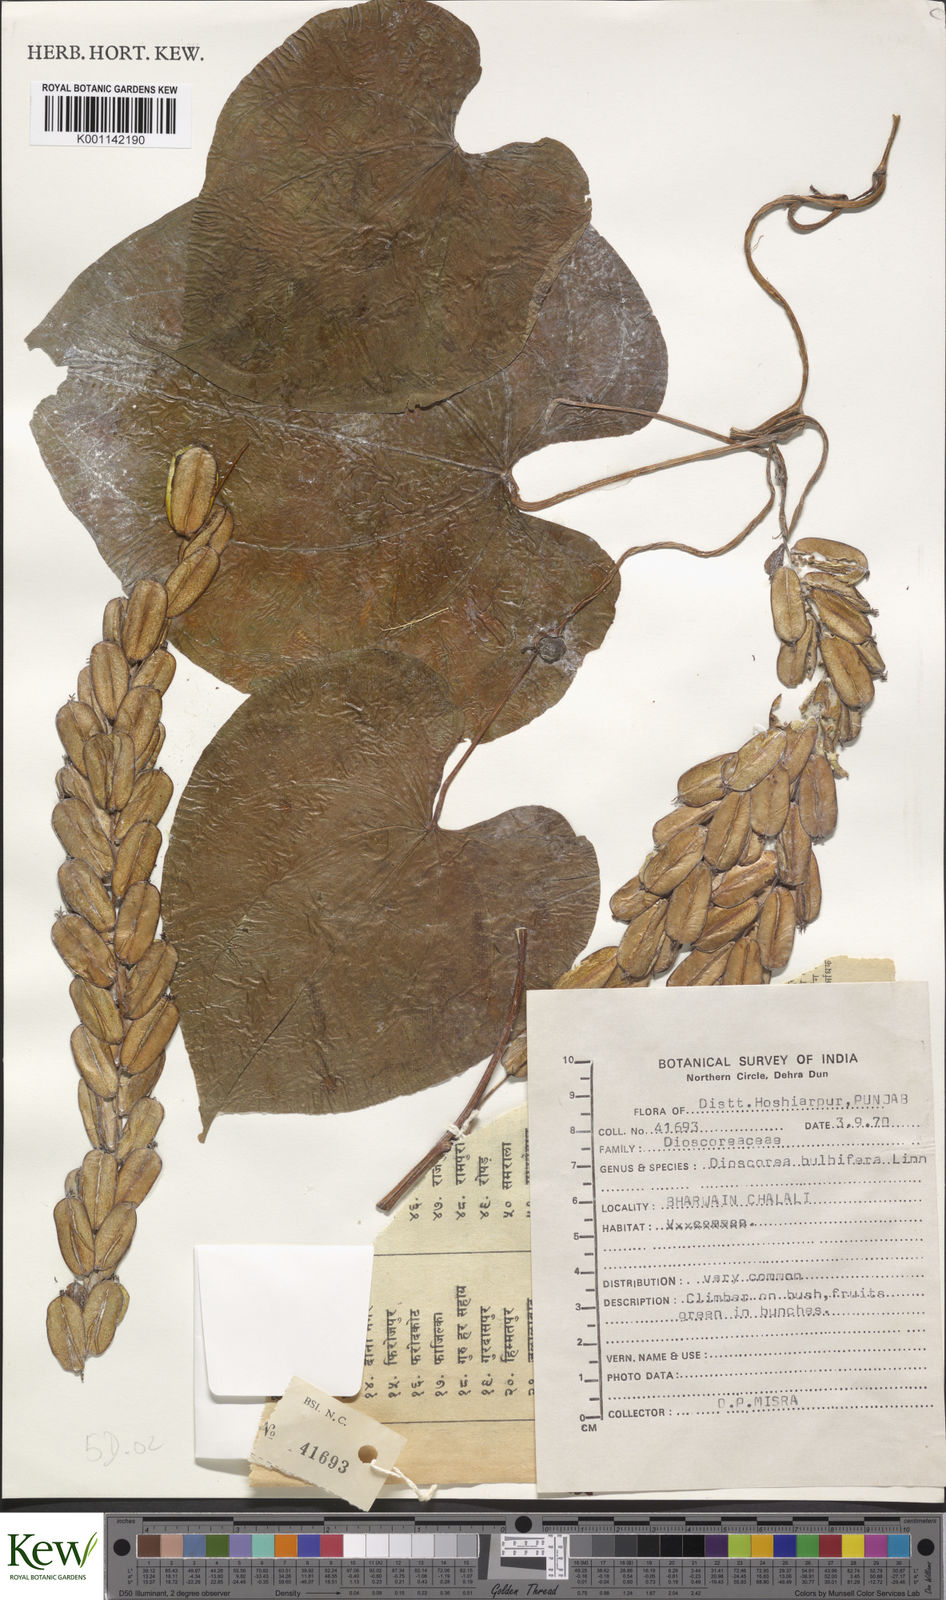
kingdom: Plantae
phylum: Tracheophyta
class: Liliopsida
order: Dioscoreales
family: Dioscoreaceae
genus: Dioscorea
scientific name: Dioscorea bulbifera
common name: Air yam
